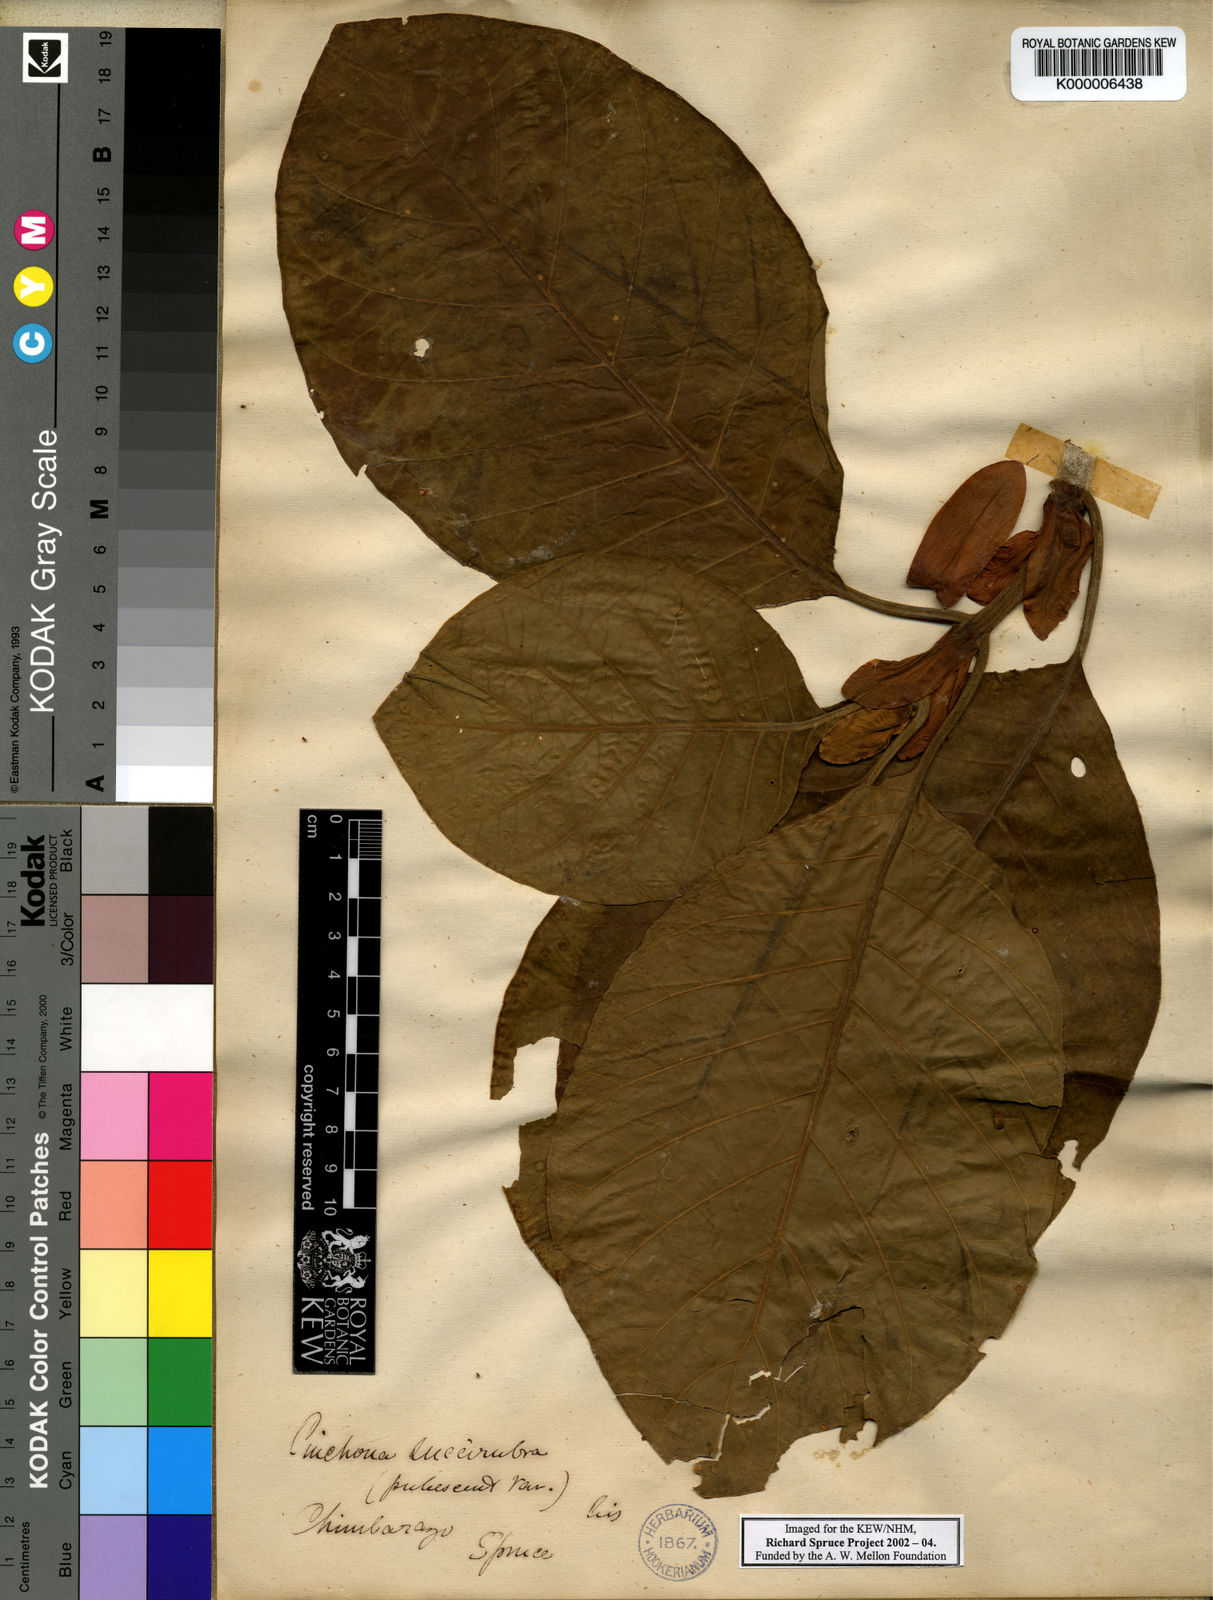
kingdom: Plantae
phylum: Tracheophyta
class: Magnoliopsida
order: Gentianales
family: Rubiaceae
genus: Cinchona
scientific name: Cinchona pubescens
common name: Quinine
